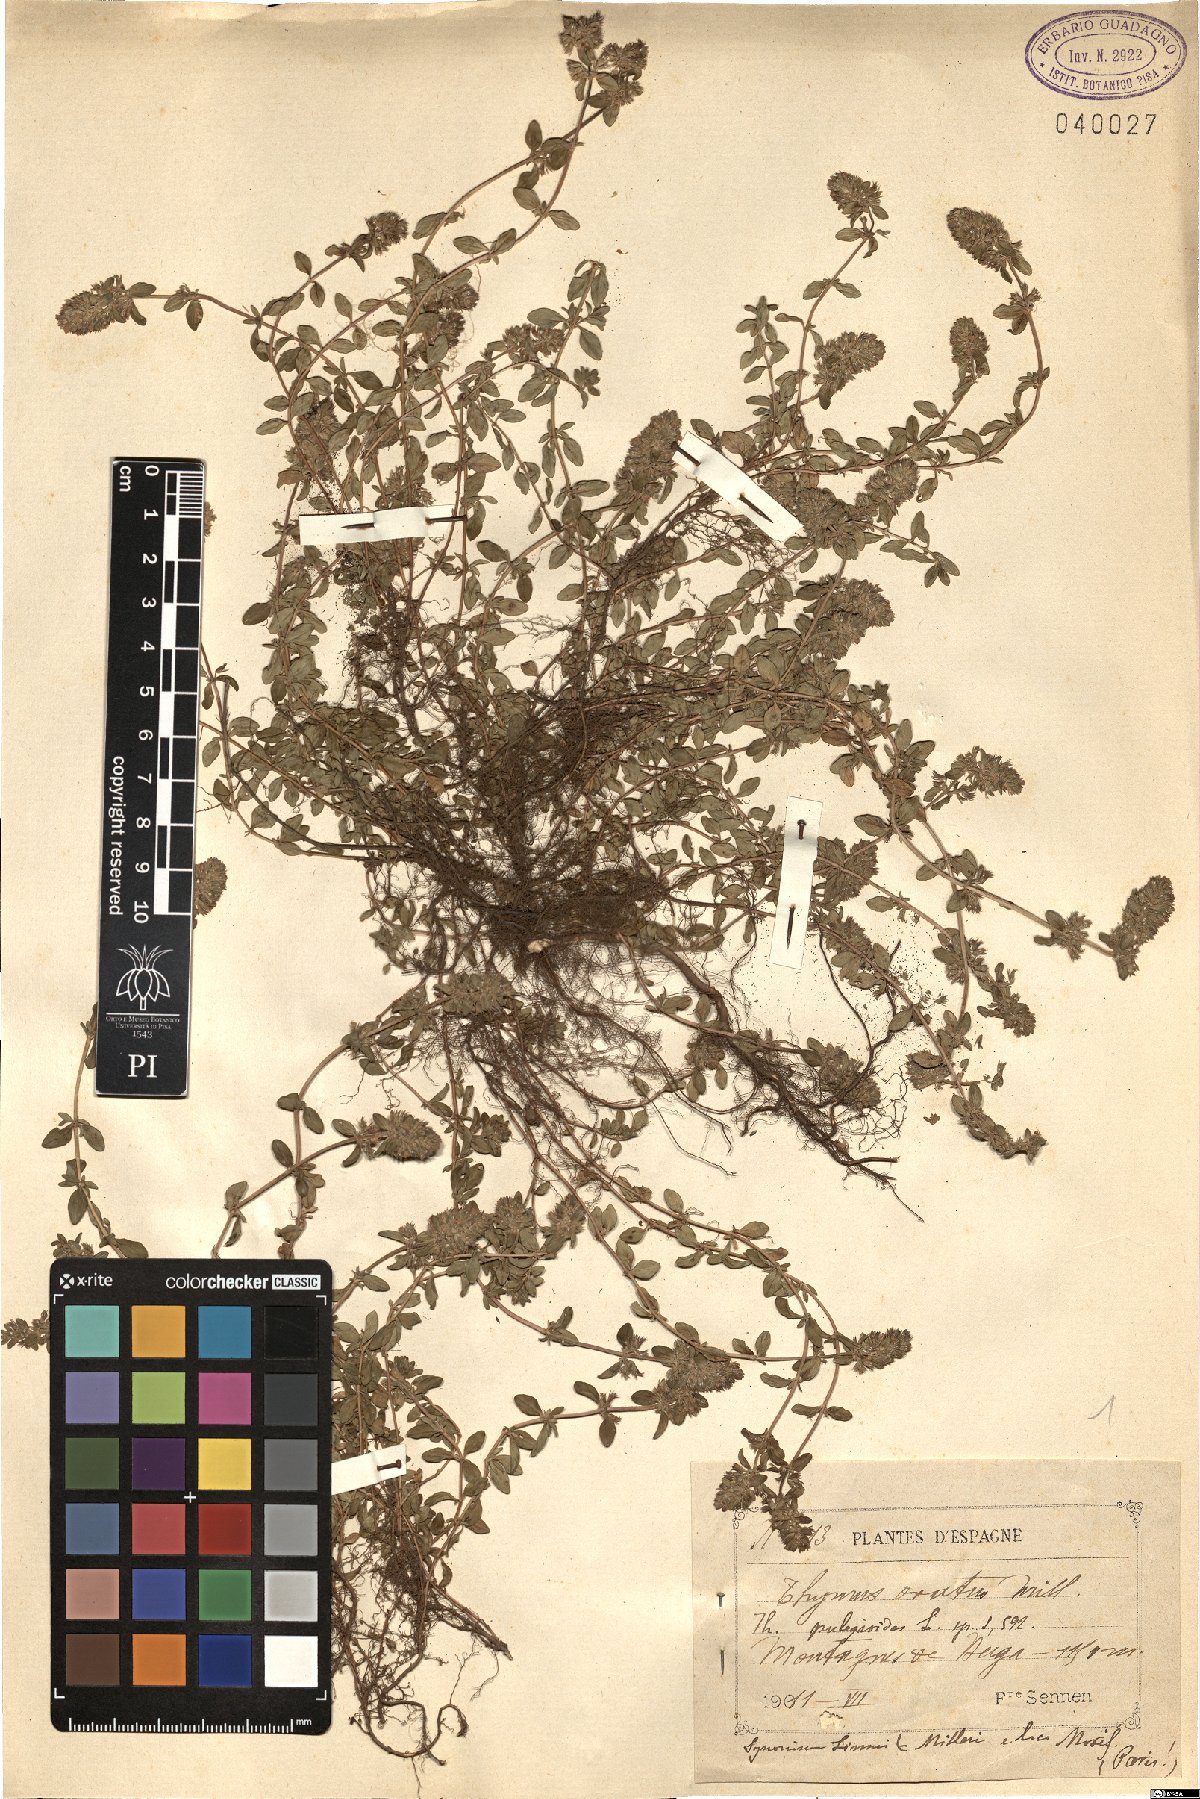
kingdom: Plantae
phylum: Tracheophyta
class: Magnoliopsida
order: Lamiales
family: Lamiaceae
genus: Thymus
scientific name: Thymus pulegioides
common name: Large thyme
